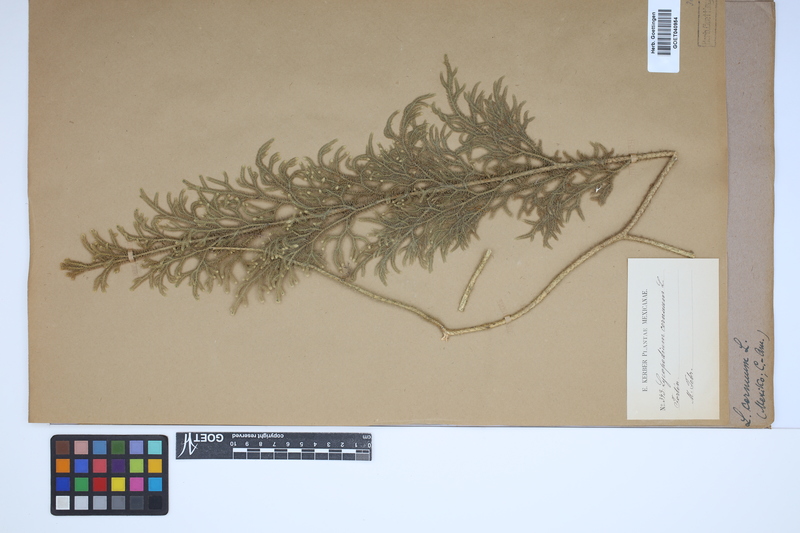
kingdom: Plantae
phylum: Tracheophyta
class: Lycopodiopsida
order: Lycopodiales
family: Lycopodiaceae
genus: Palhinhaea
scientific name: Palhinhaea cernua
